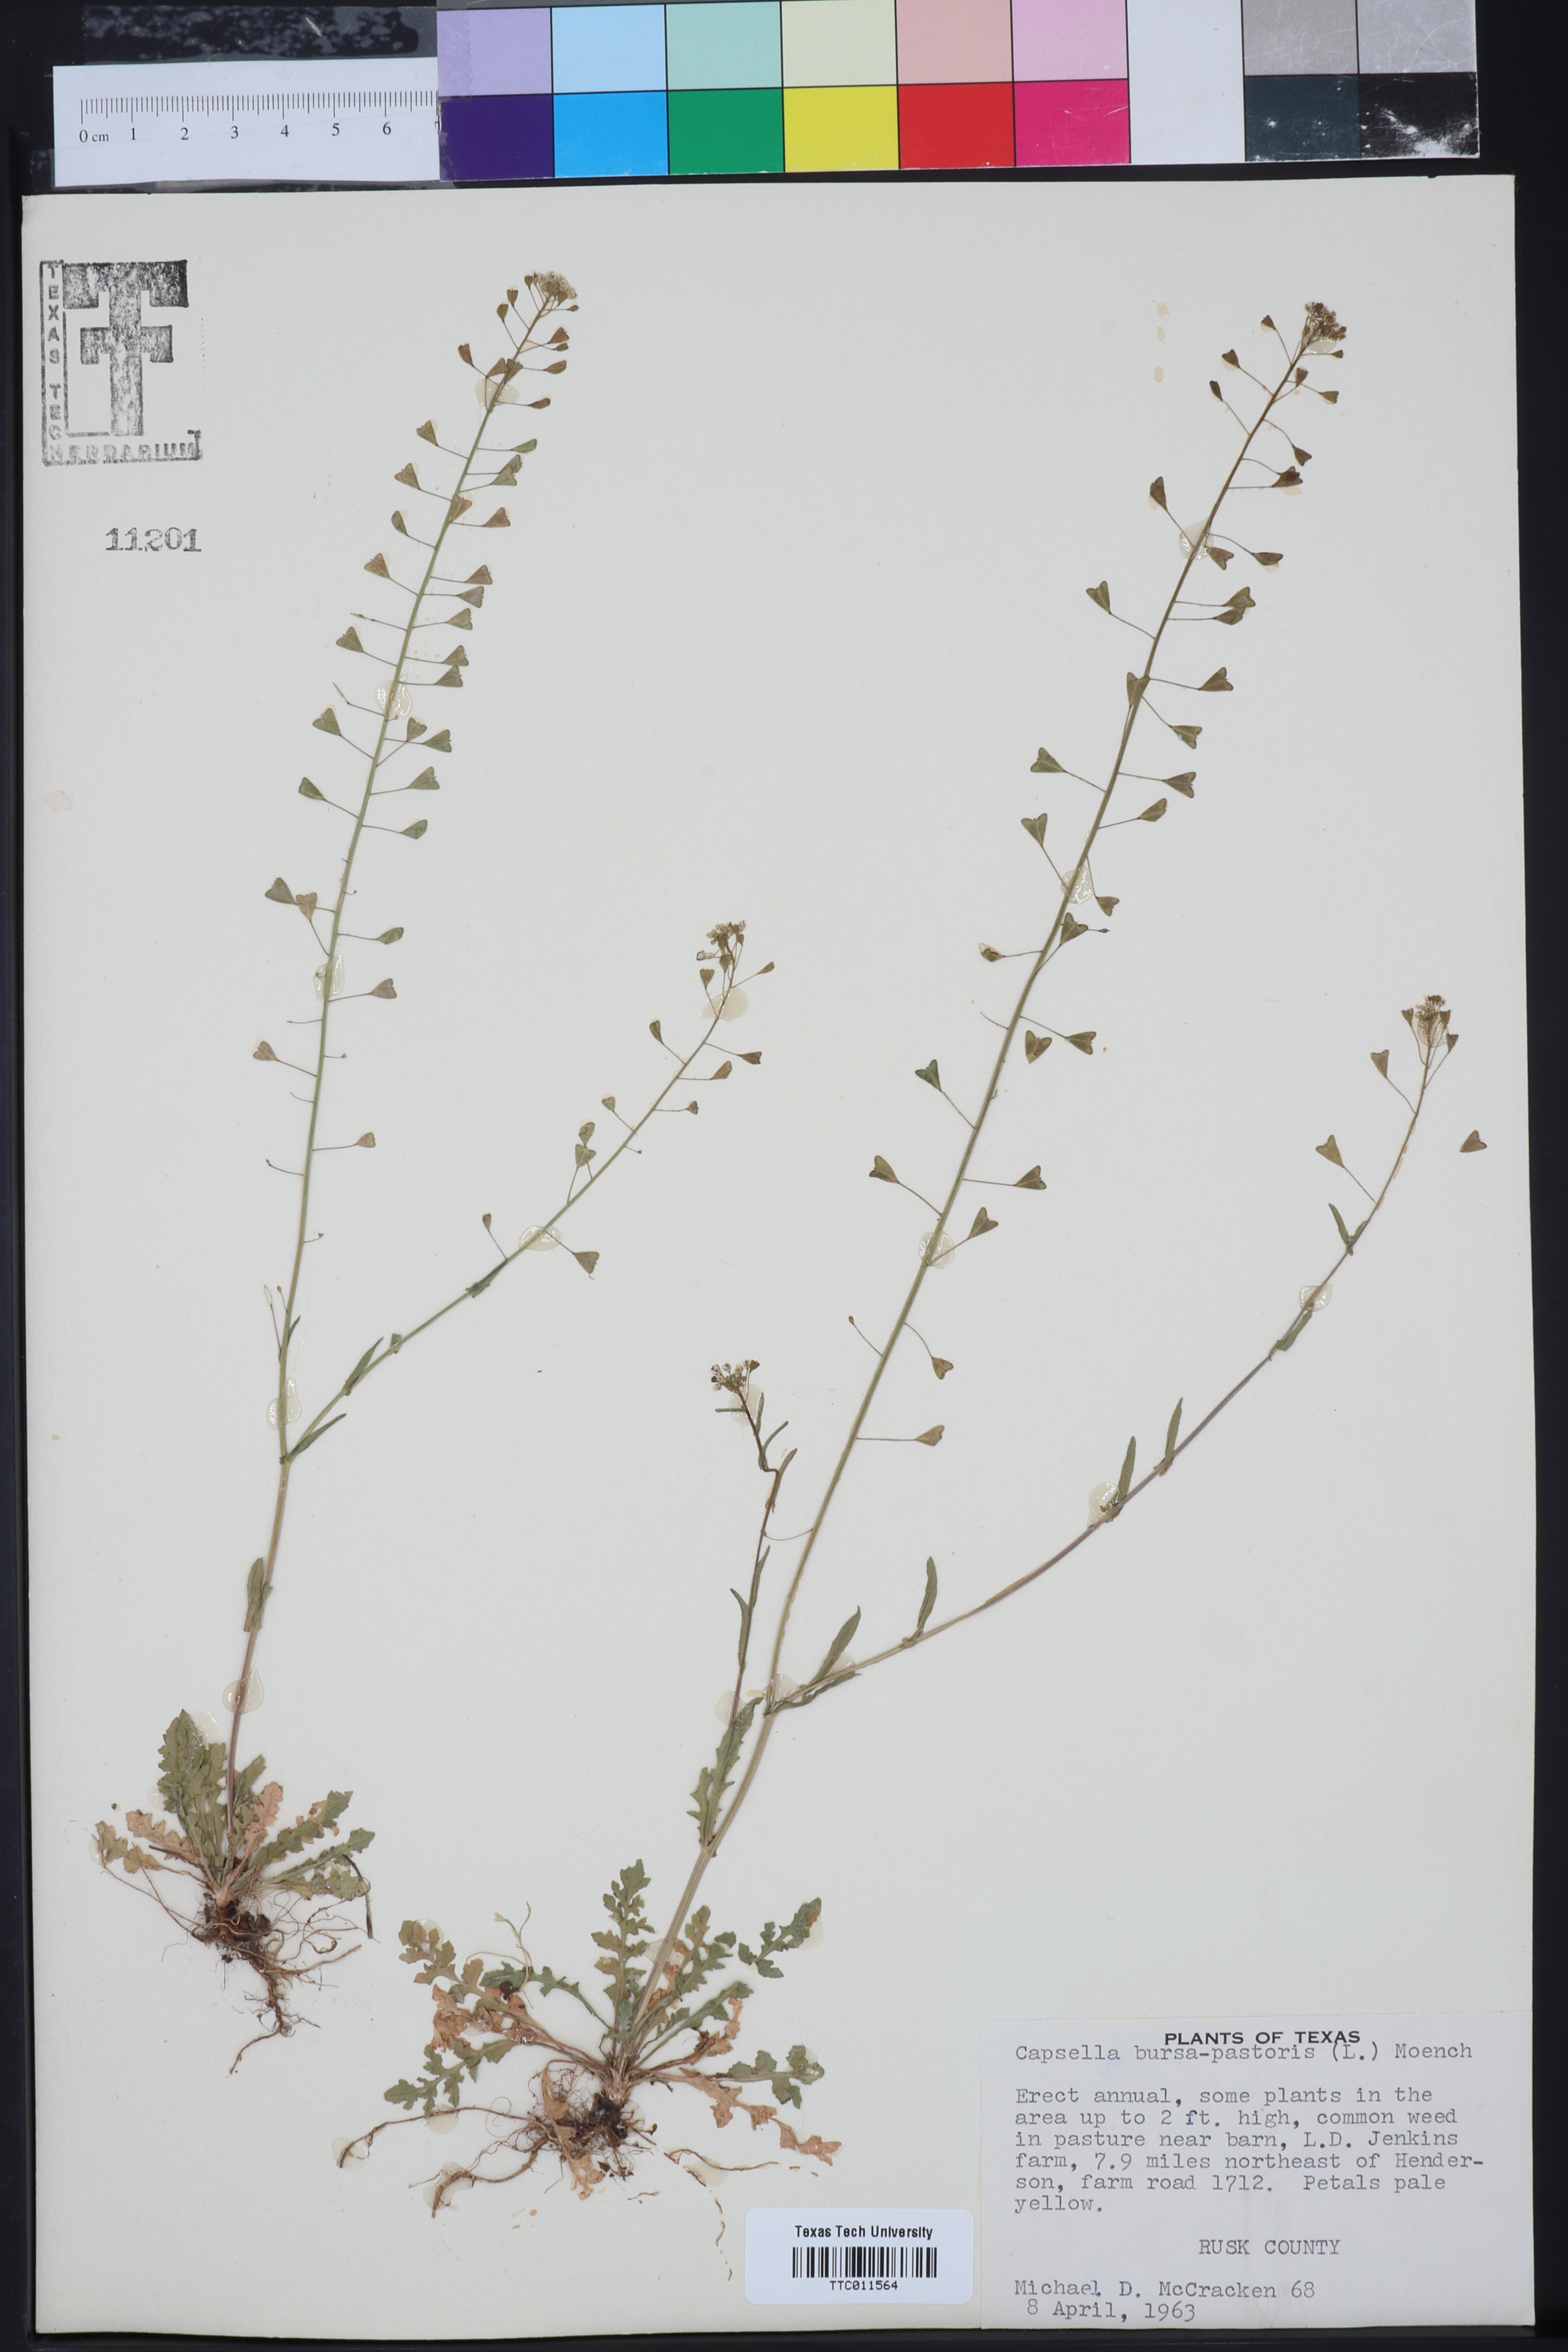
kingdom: Plantae
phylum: Tracheophyta
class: Magnoliopsida
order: Brassicales
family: Brassicaceae
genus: Capsella
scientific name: Capsella bursa-pastoris
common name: Shepherd's purse
